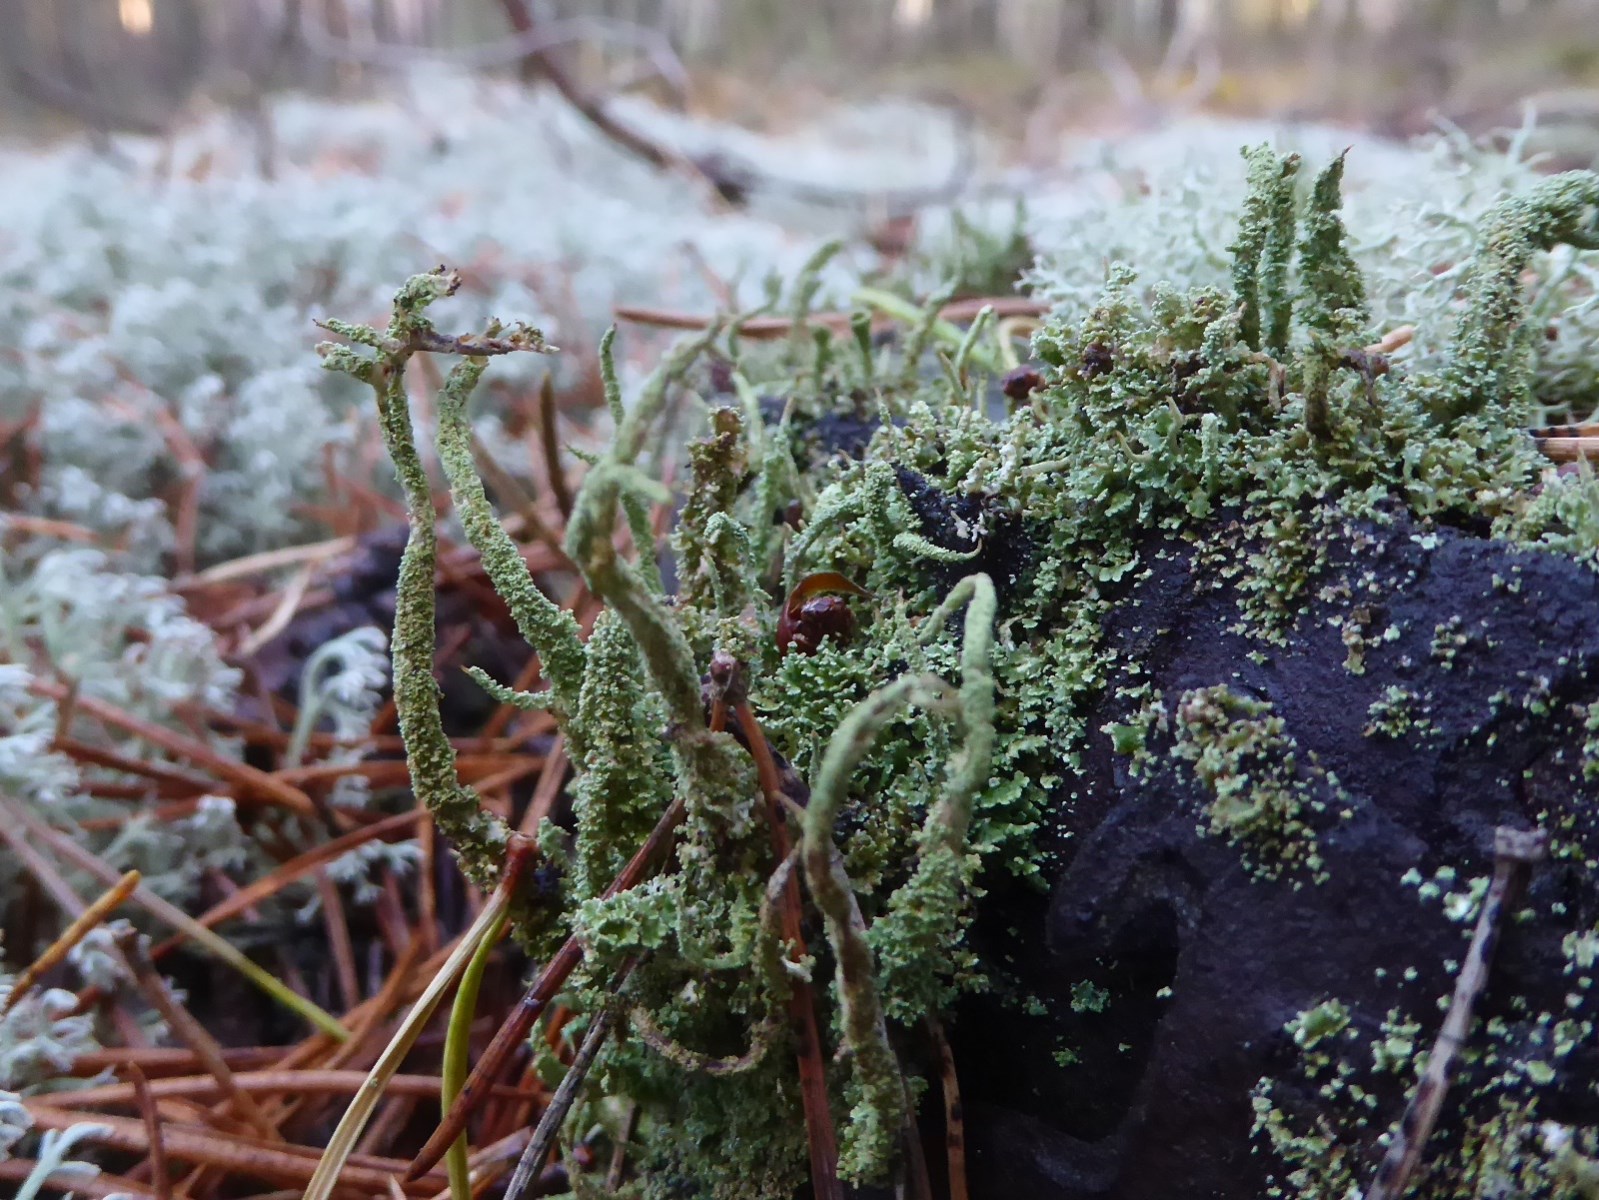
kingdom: Fungi
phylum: Ascomycota
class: Lecanoromycetes
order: Lecanorales
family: Cladoniaceae
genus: Cladonia
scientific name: Cladonia glauca
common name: grågrøn bægerlav
